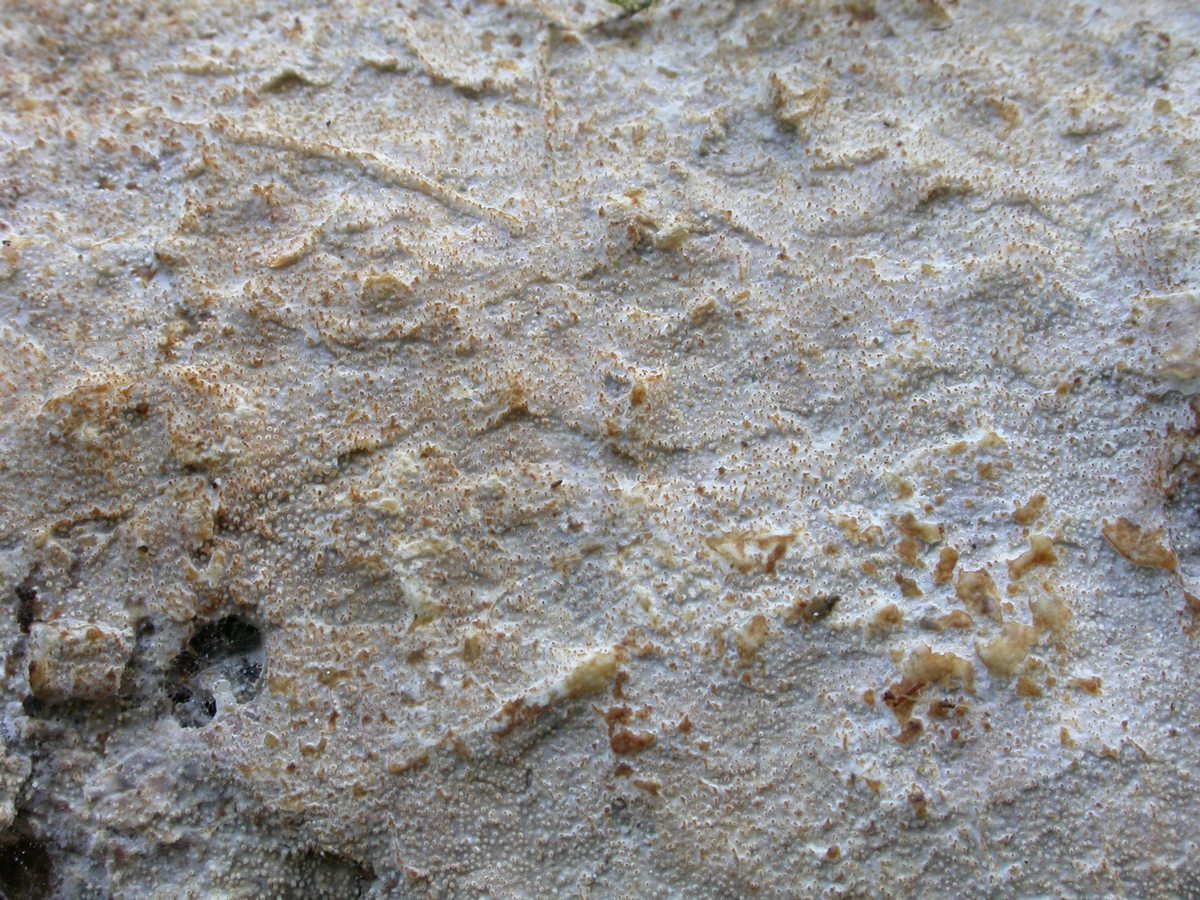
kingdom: Fungi
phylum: Basidiomycota
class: Agaricomycetes
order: Hymenochaetales
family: Rickenellaceae
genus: Resinicium
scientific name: Resinicium bicolor
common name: almindelig vokstand
